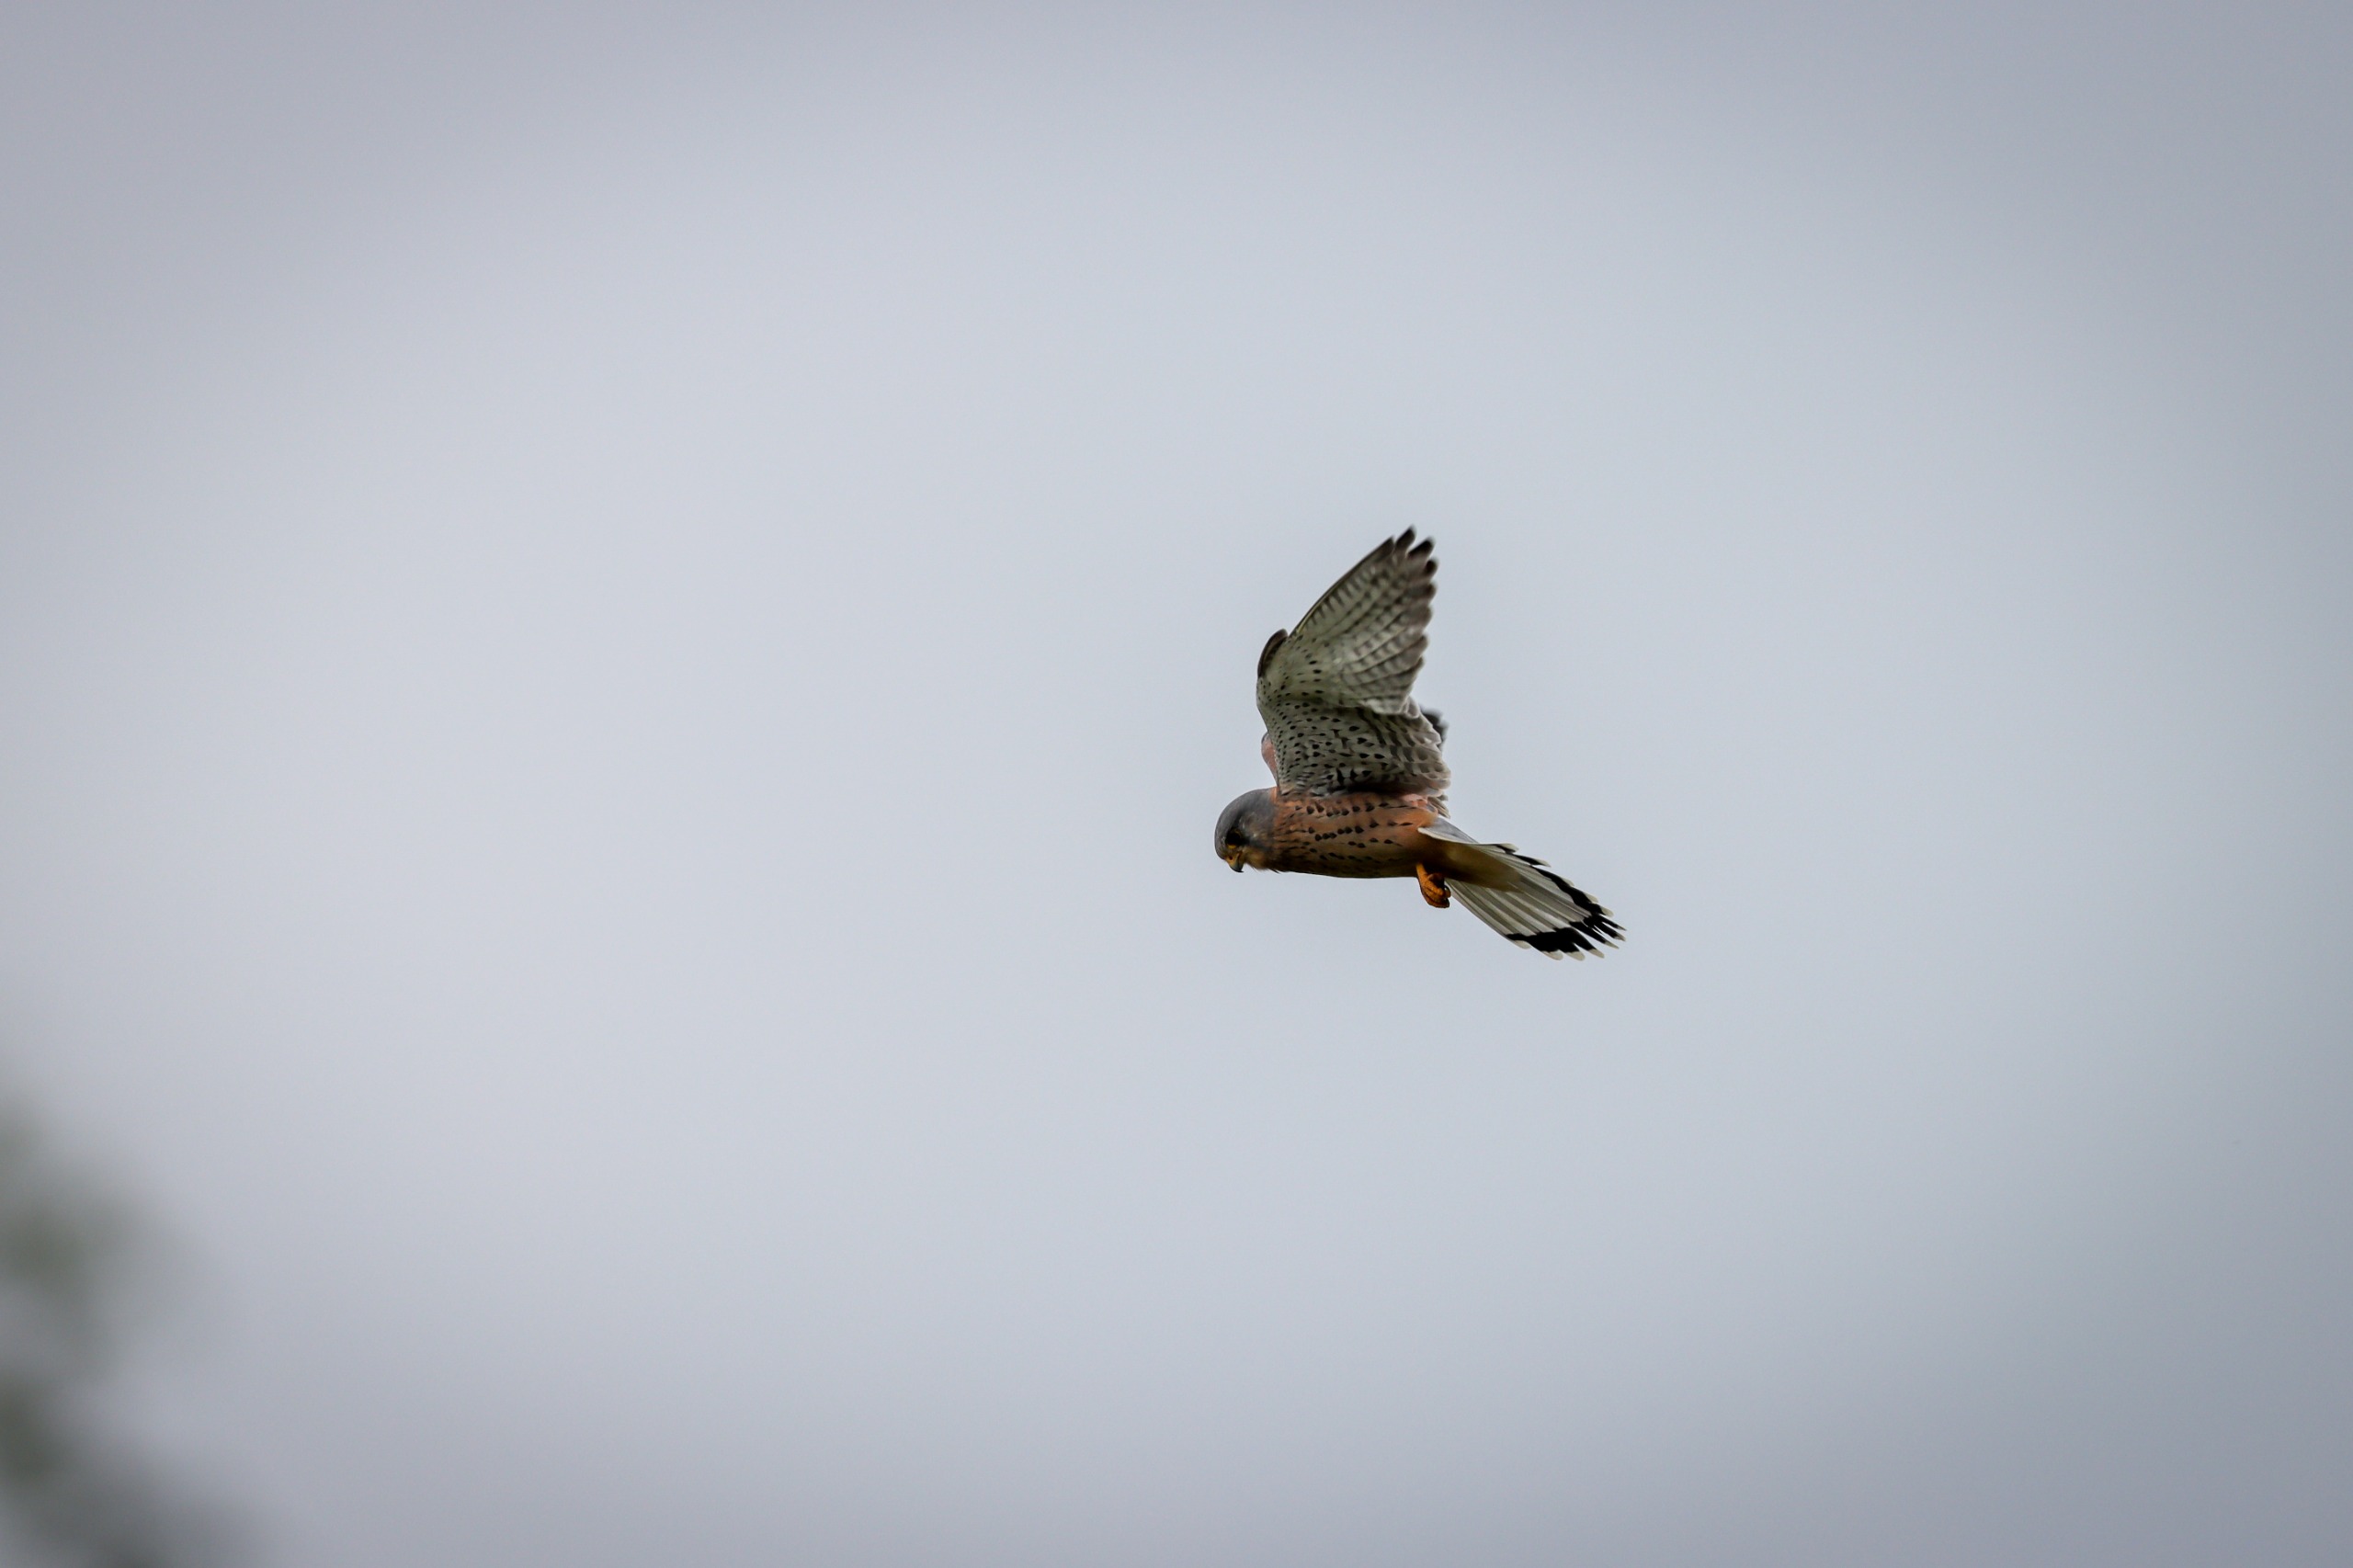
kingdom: Animalia
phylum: Chordata
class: Aves
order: Falconiformes
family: Falconidae
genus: Falco
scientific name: Falco tinnunculus
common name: Tårnfalk
